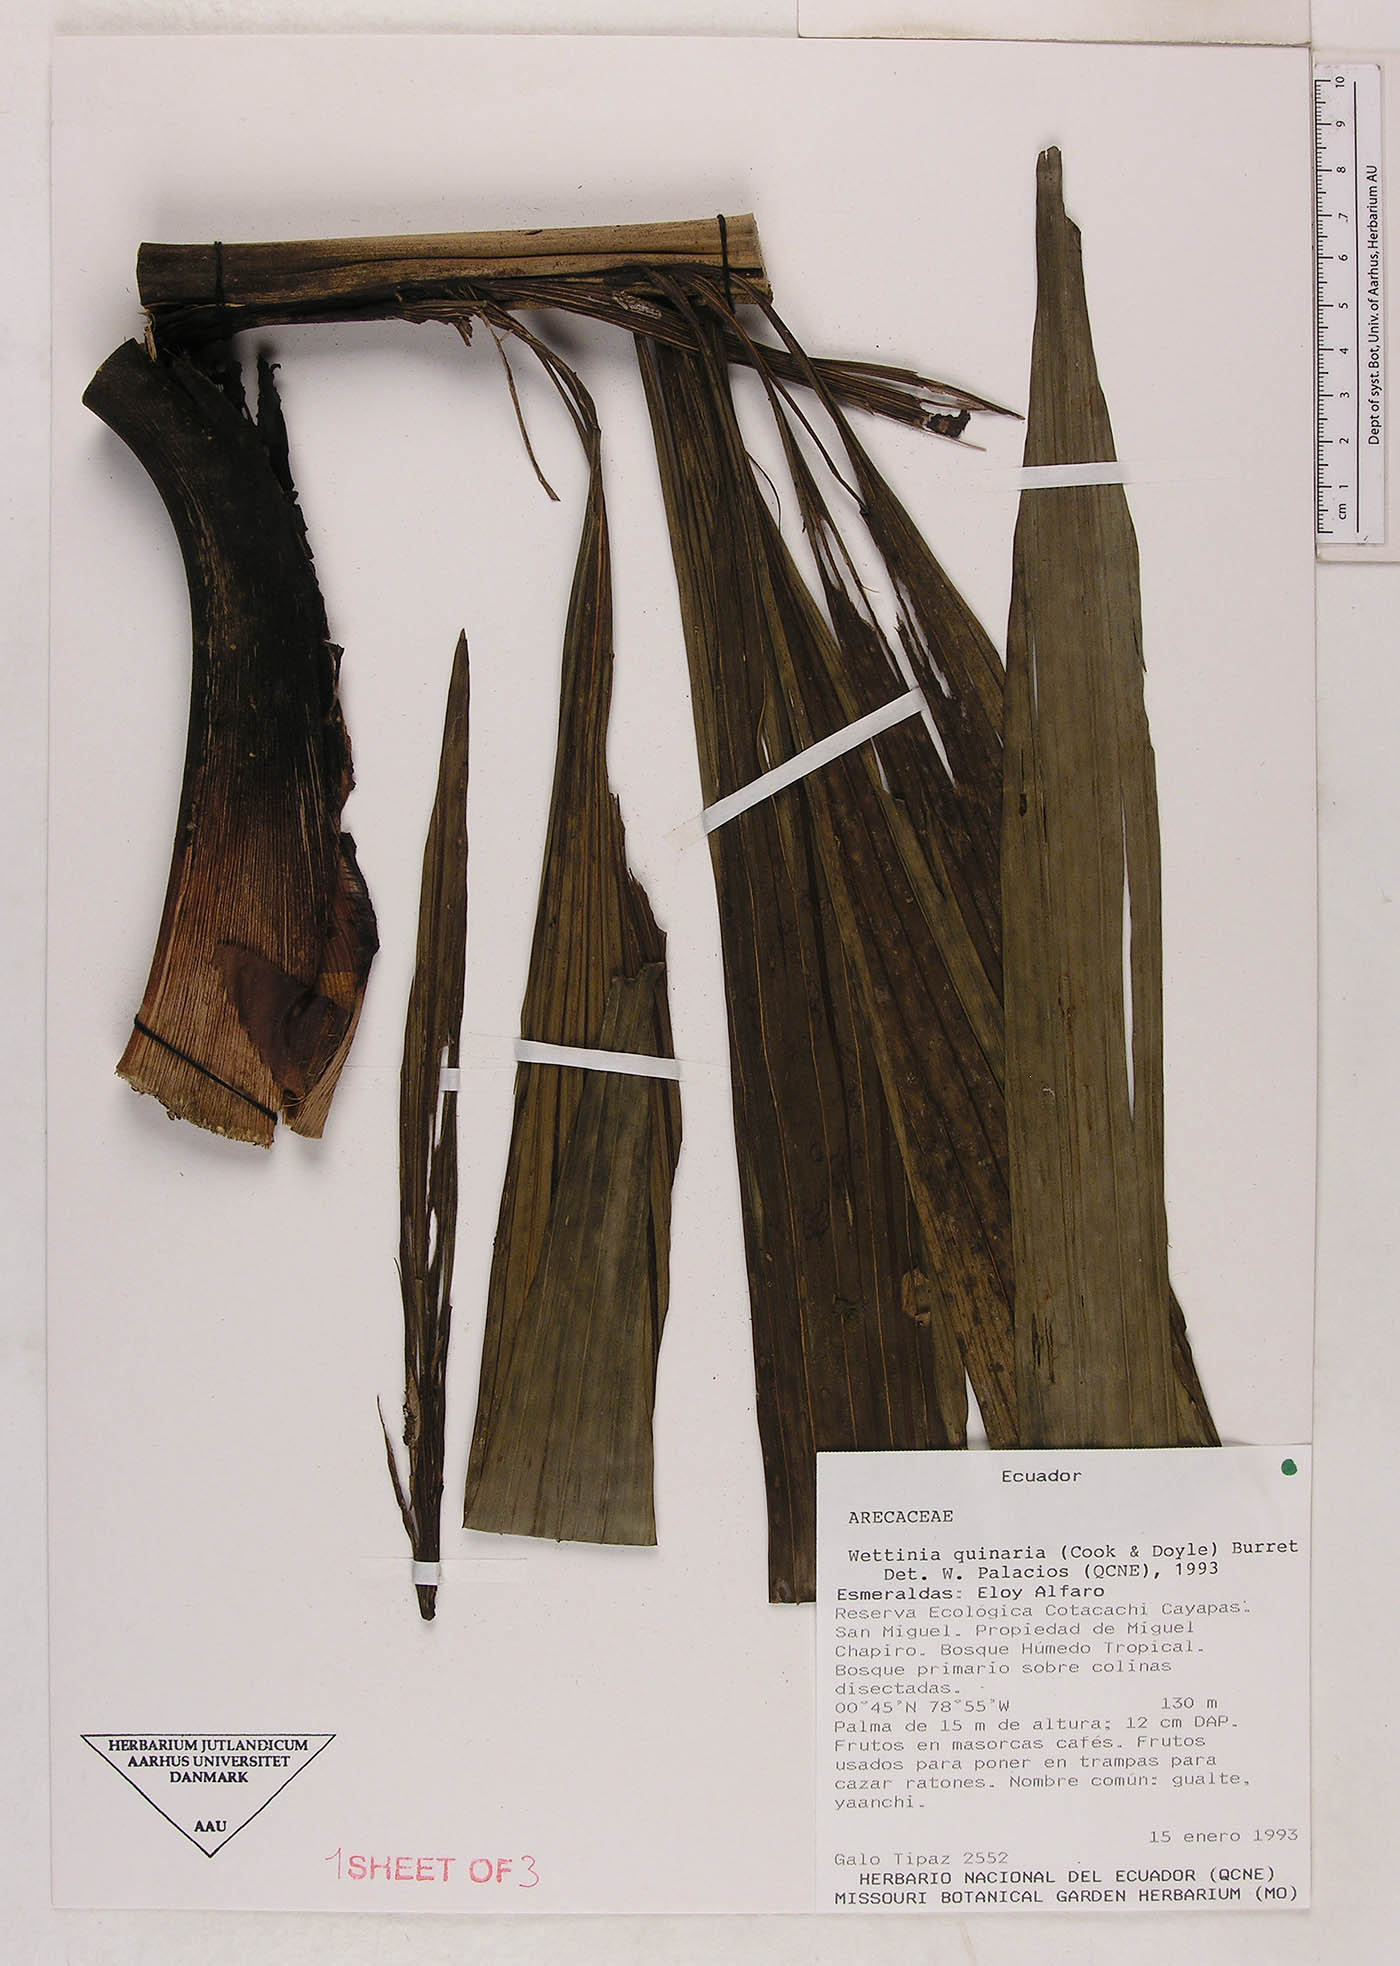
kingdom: Plantae
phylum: Tracheophyta
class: Liliopsida
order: Arecales
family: Arecaceae
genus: Wettinia
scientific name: Wettinia quinaria
